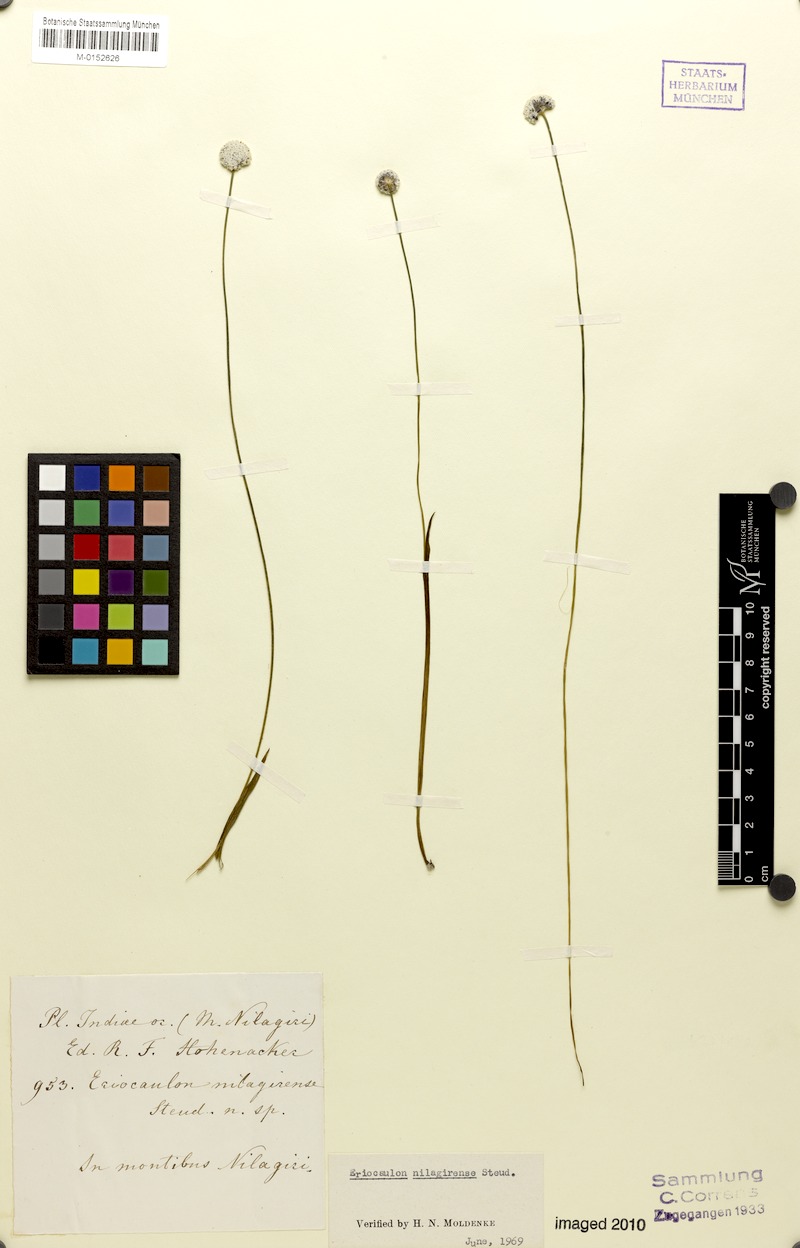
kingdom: Plantae
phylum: Tracheophyta
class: Liliopsida
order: Poales
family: Eriocaulaceae
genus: Eriocaulon
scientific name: Eriocaulon brownianum
